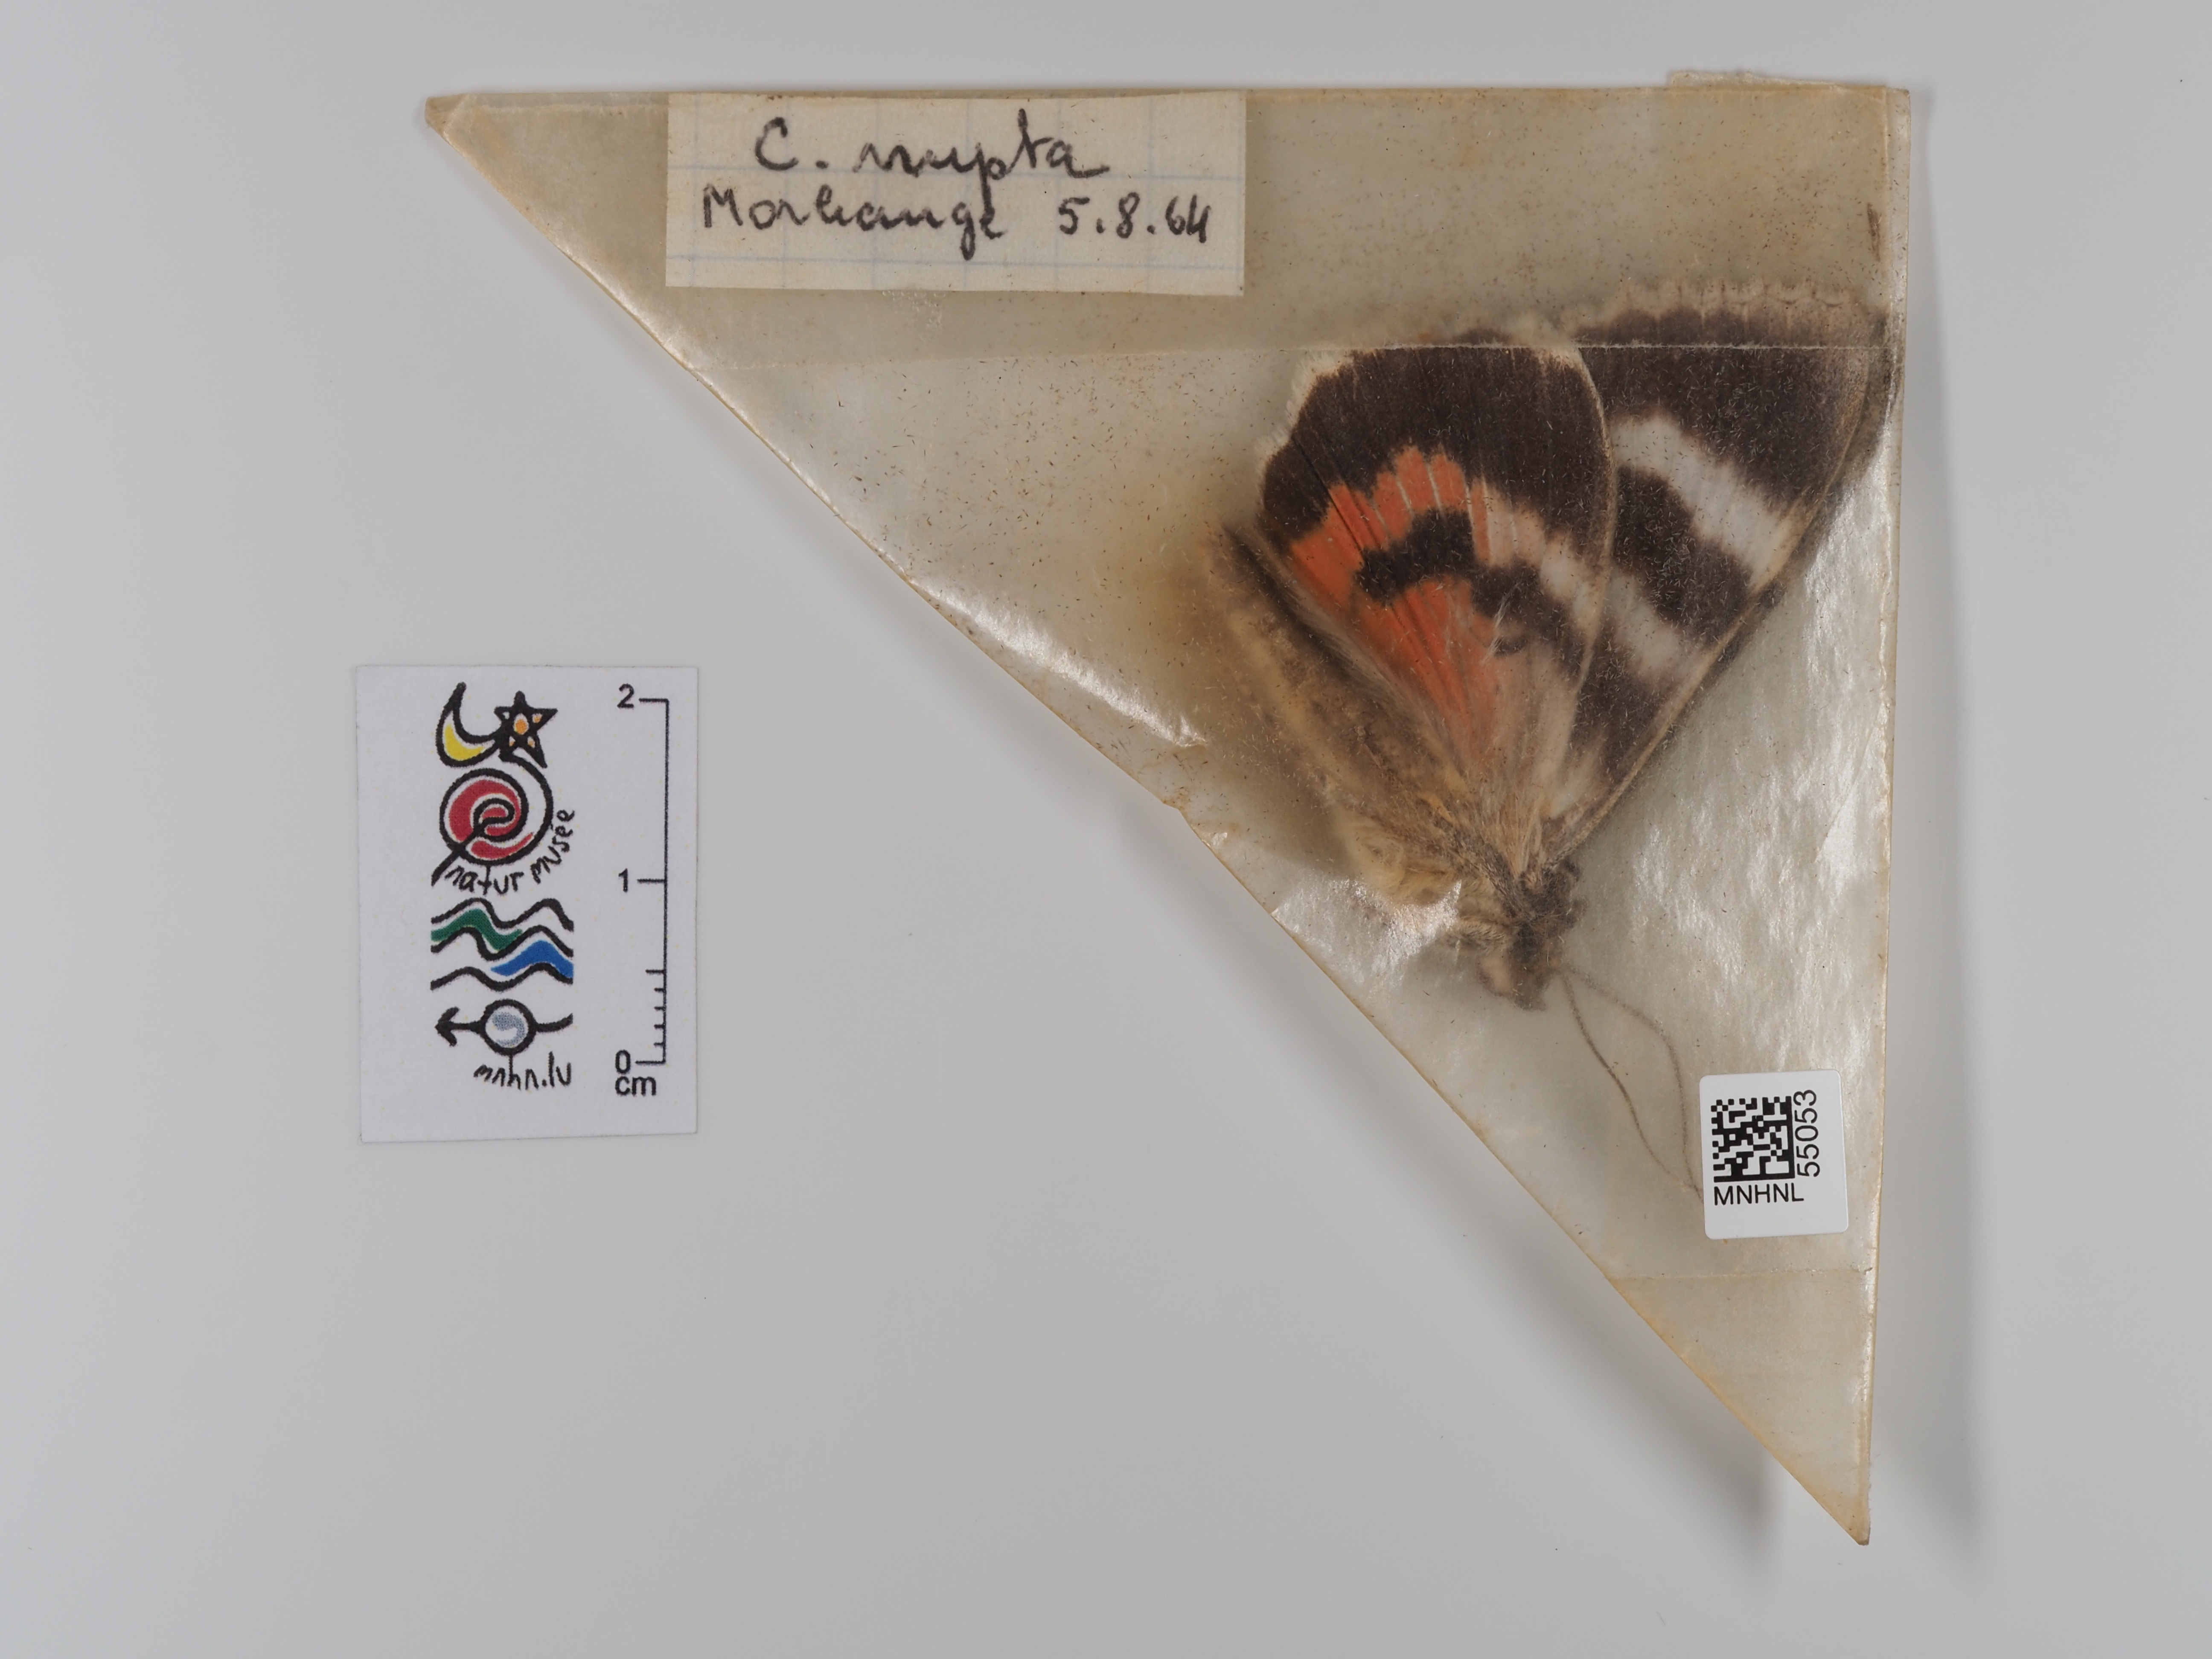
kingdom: Animalia
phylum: Arthropoda
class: Insecta
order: Lepidoptera
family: Erebidae
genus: Catocala
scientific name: Catocala nupta
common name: Red underwing
